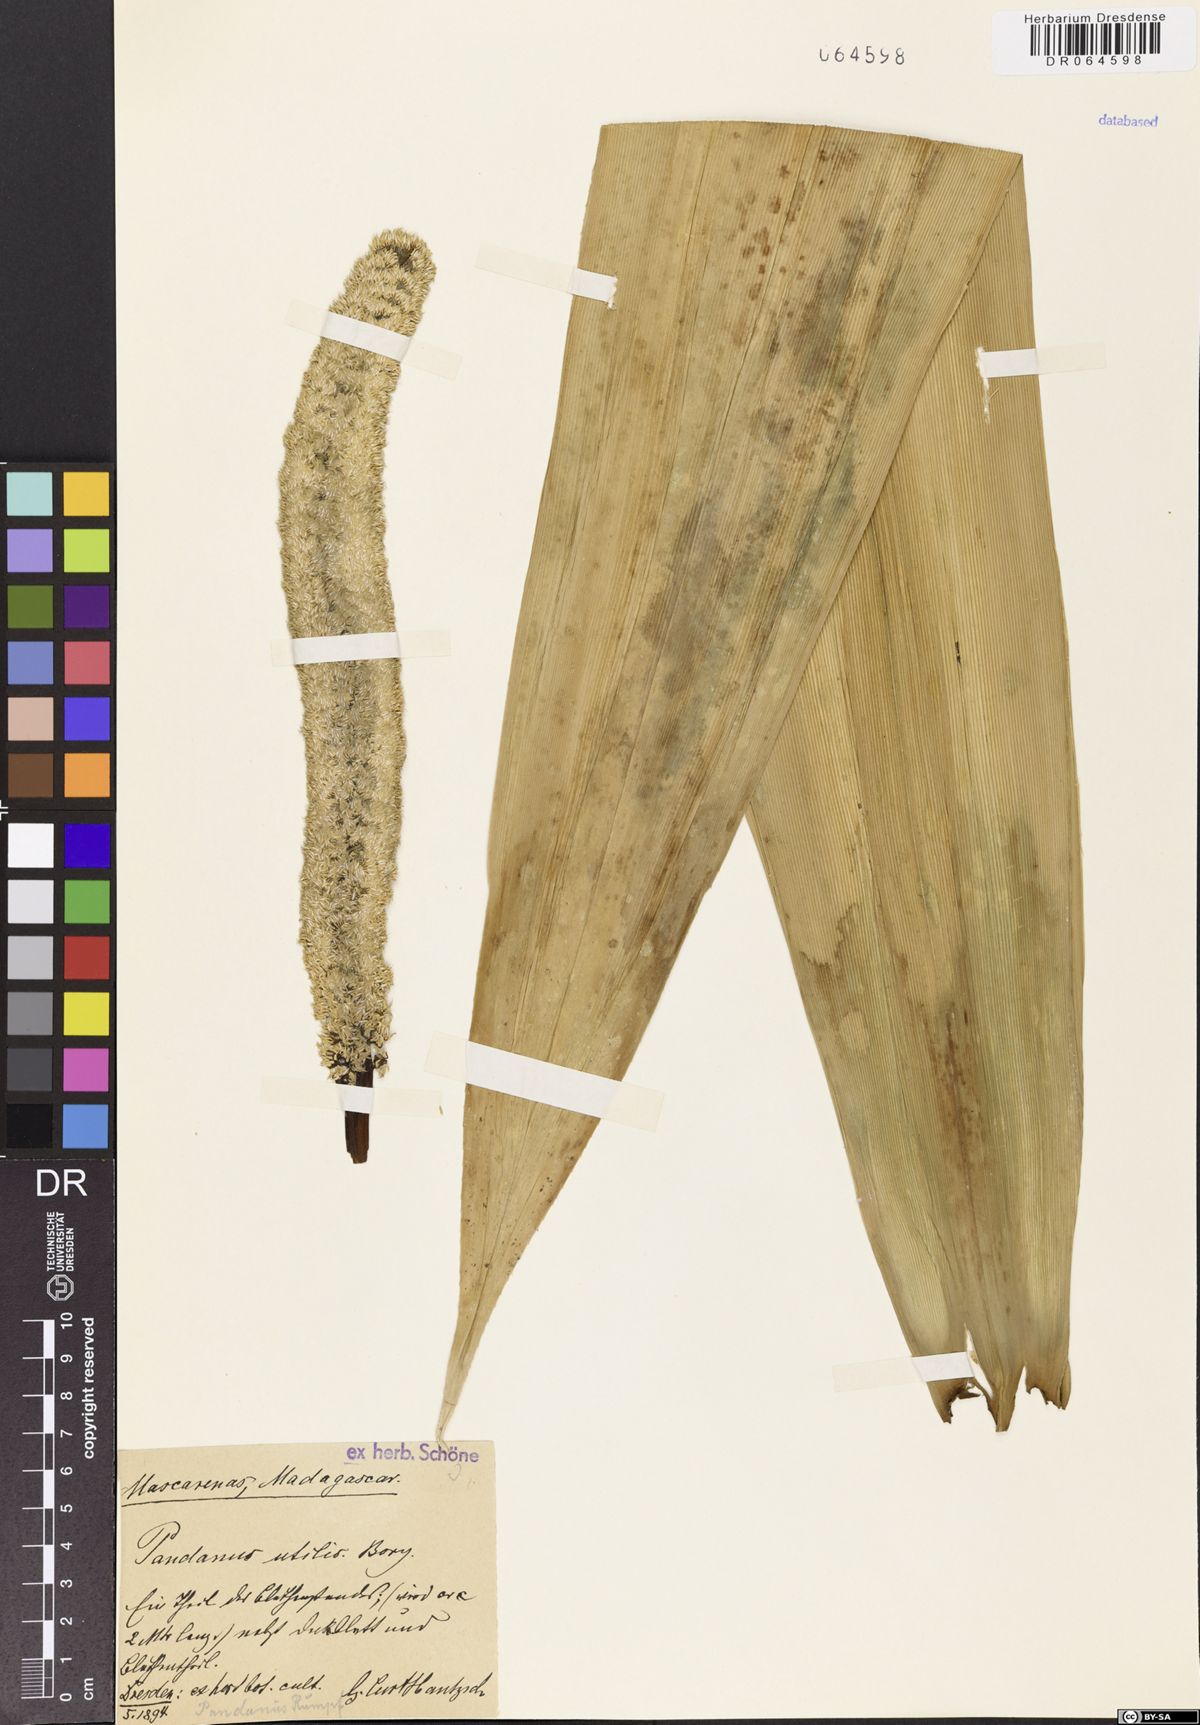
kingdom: Plantae
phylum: Tracheophyta
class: Liliopsida
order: Pandanales
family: Pandanaceae
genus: Pandanus
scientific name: Pandanus utilis
